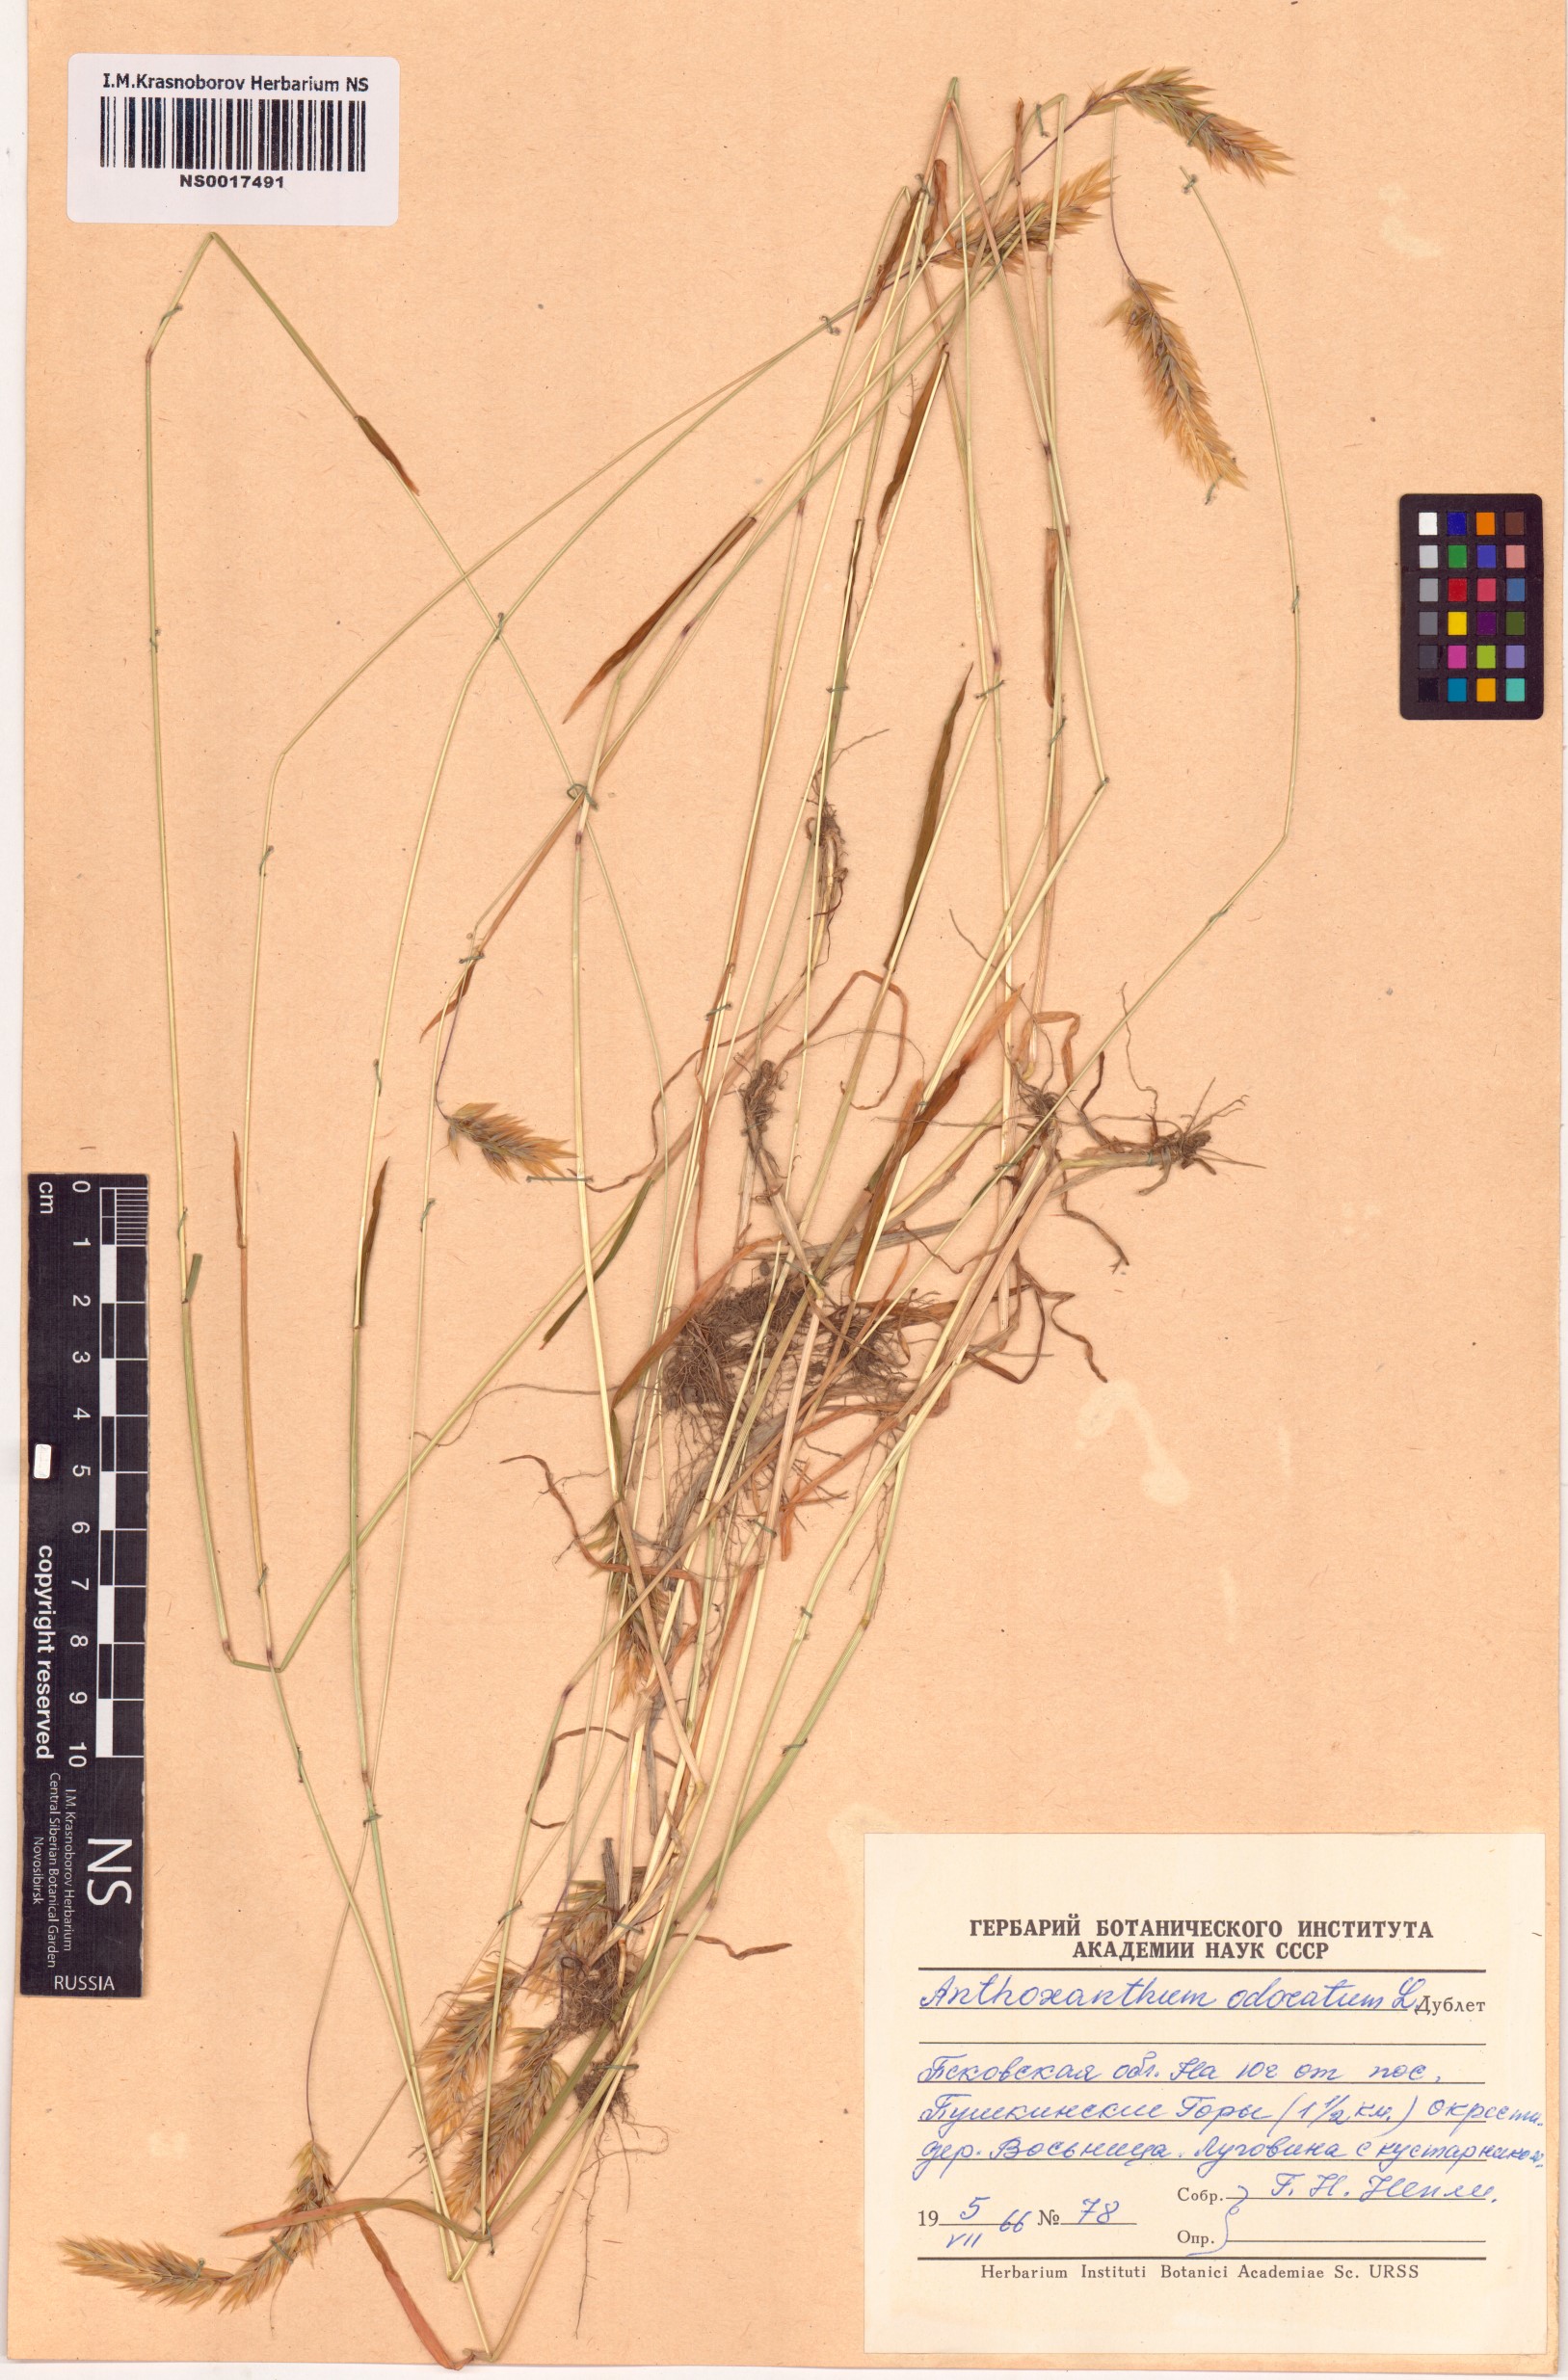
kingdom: Plantae
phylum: Tracheophyta
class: Liliopsida
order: Poales
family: Poaceae
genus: Anthoxanthum
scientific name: Anthoxanthum odoratum
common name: Sweet vernalgrass
